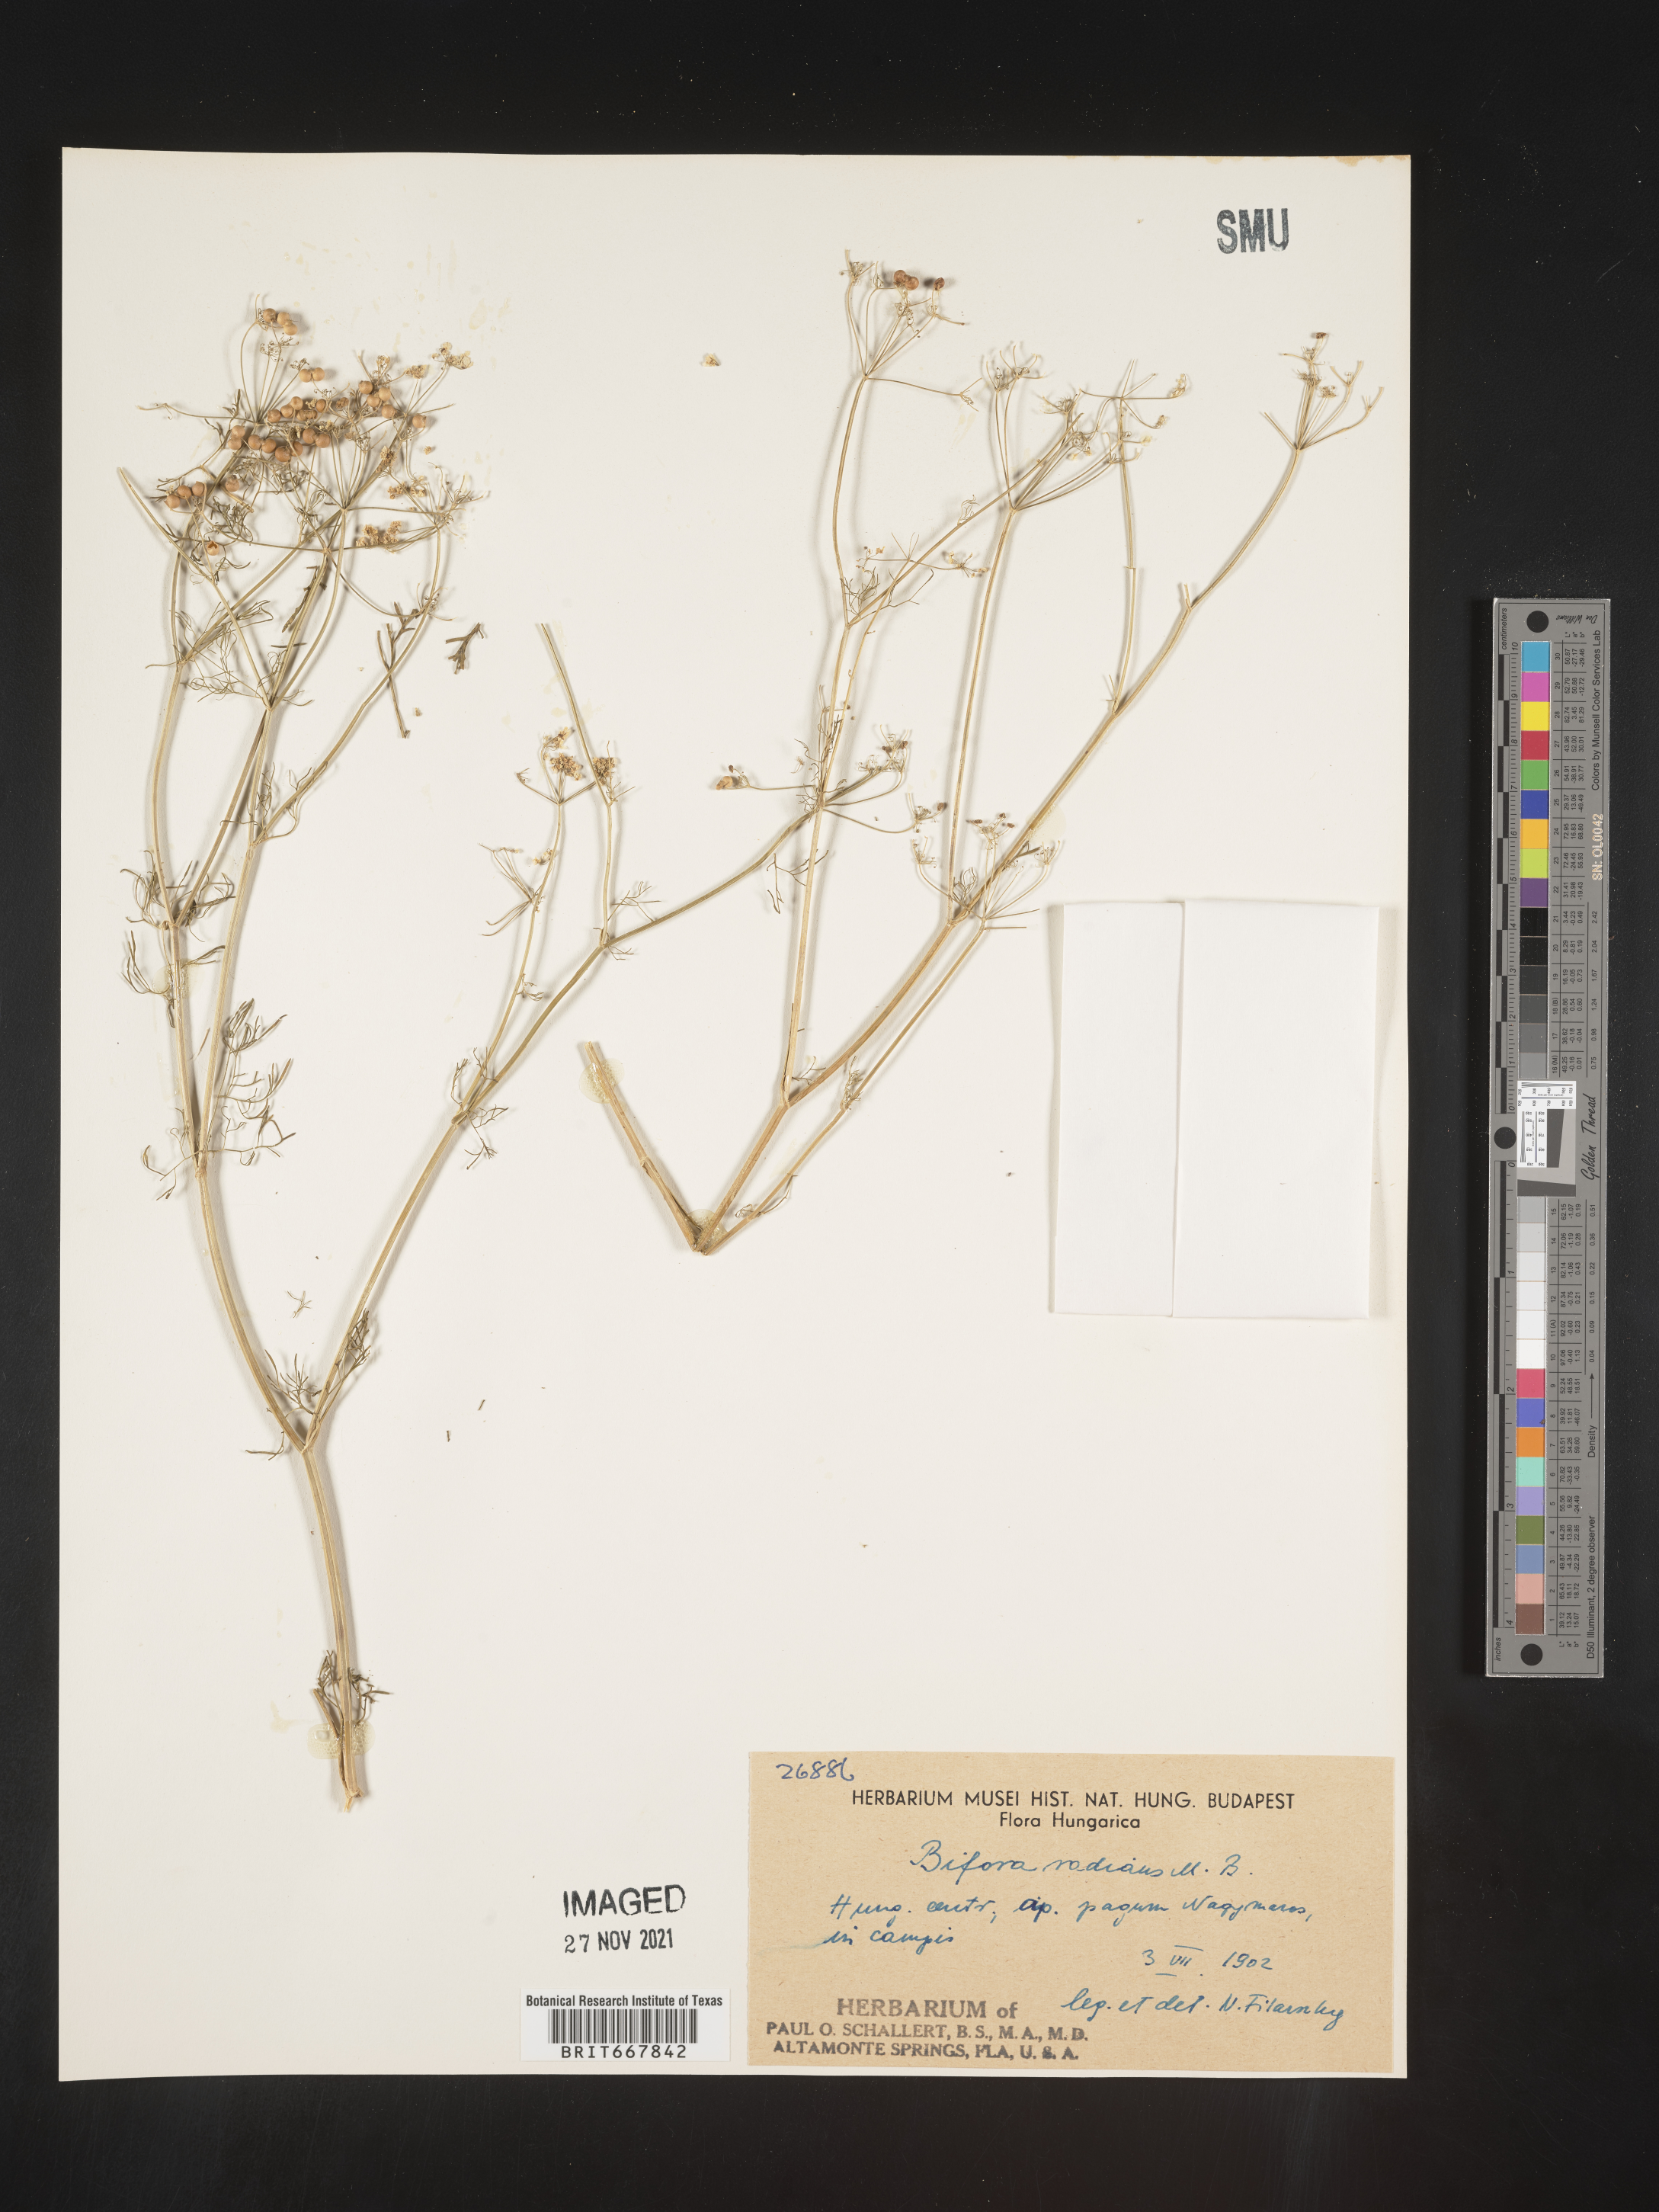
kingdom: Plantae
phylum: Tracheophyta
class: Magnoliopsida
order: Apiales
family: Apiaceae
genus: Bifora
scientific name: Bifora
